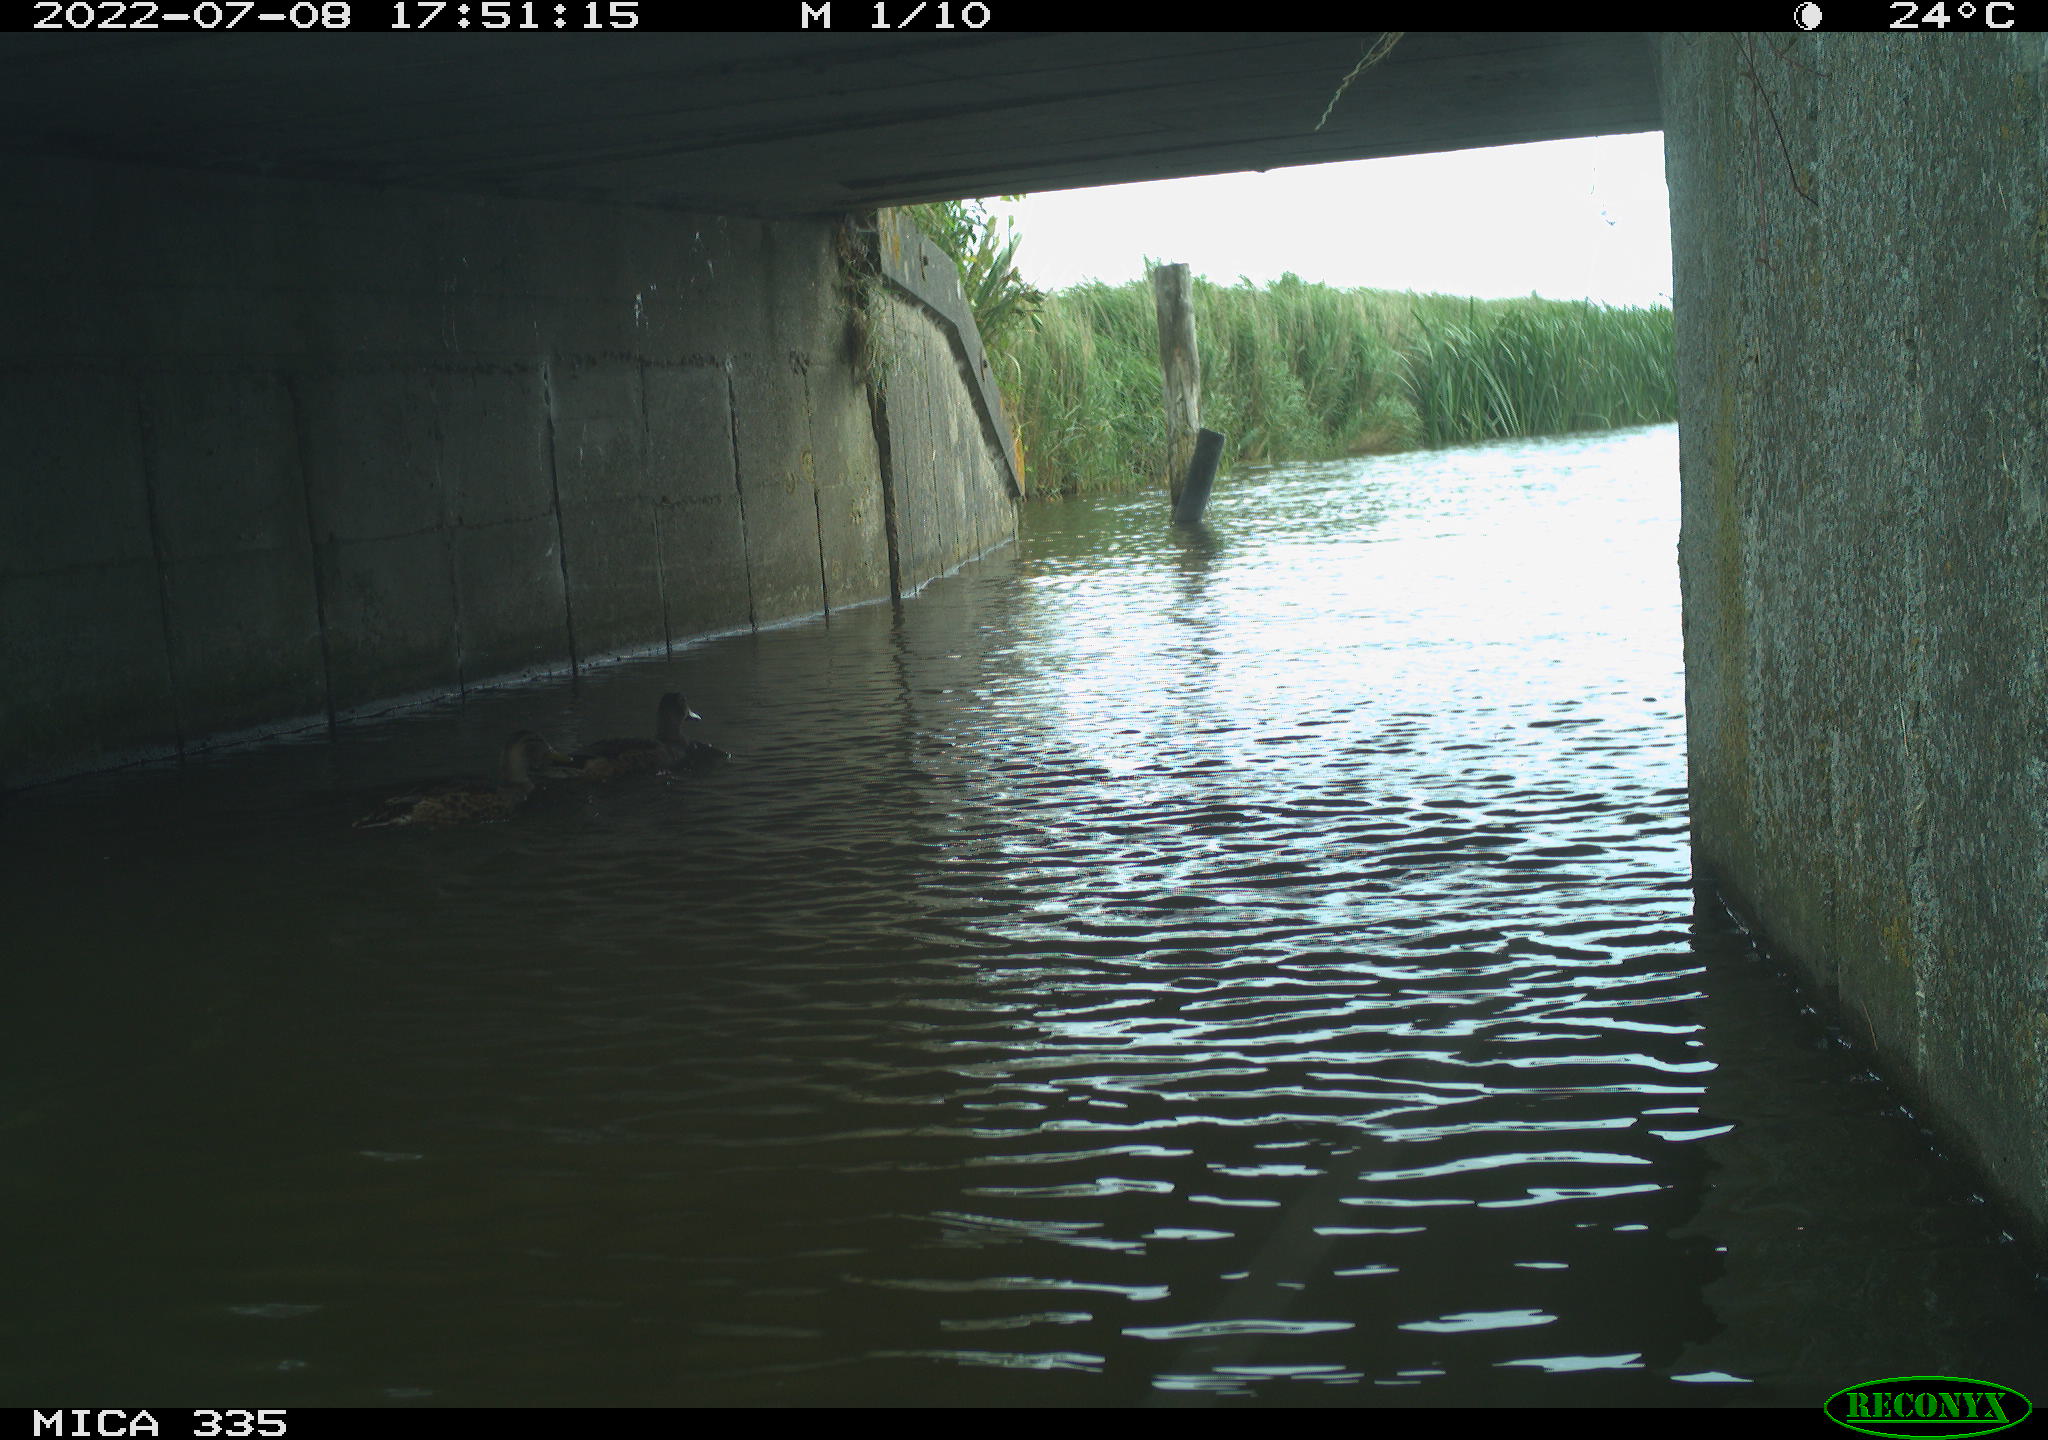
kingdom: Animalia
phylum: Chordata
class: Aves
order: Anseriformes
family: Anatidae
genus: Anas
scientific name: Anas platyrhynchos
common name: Mallard
